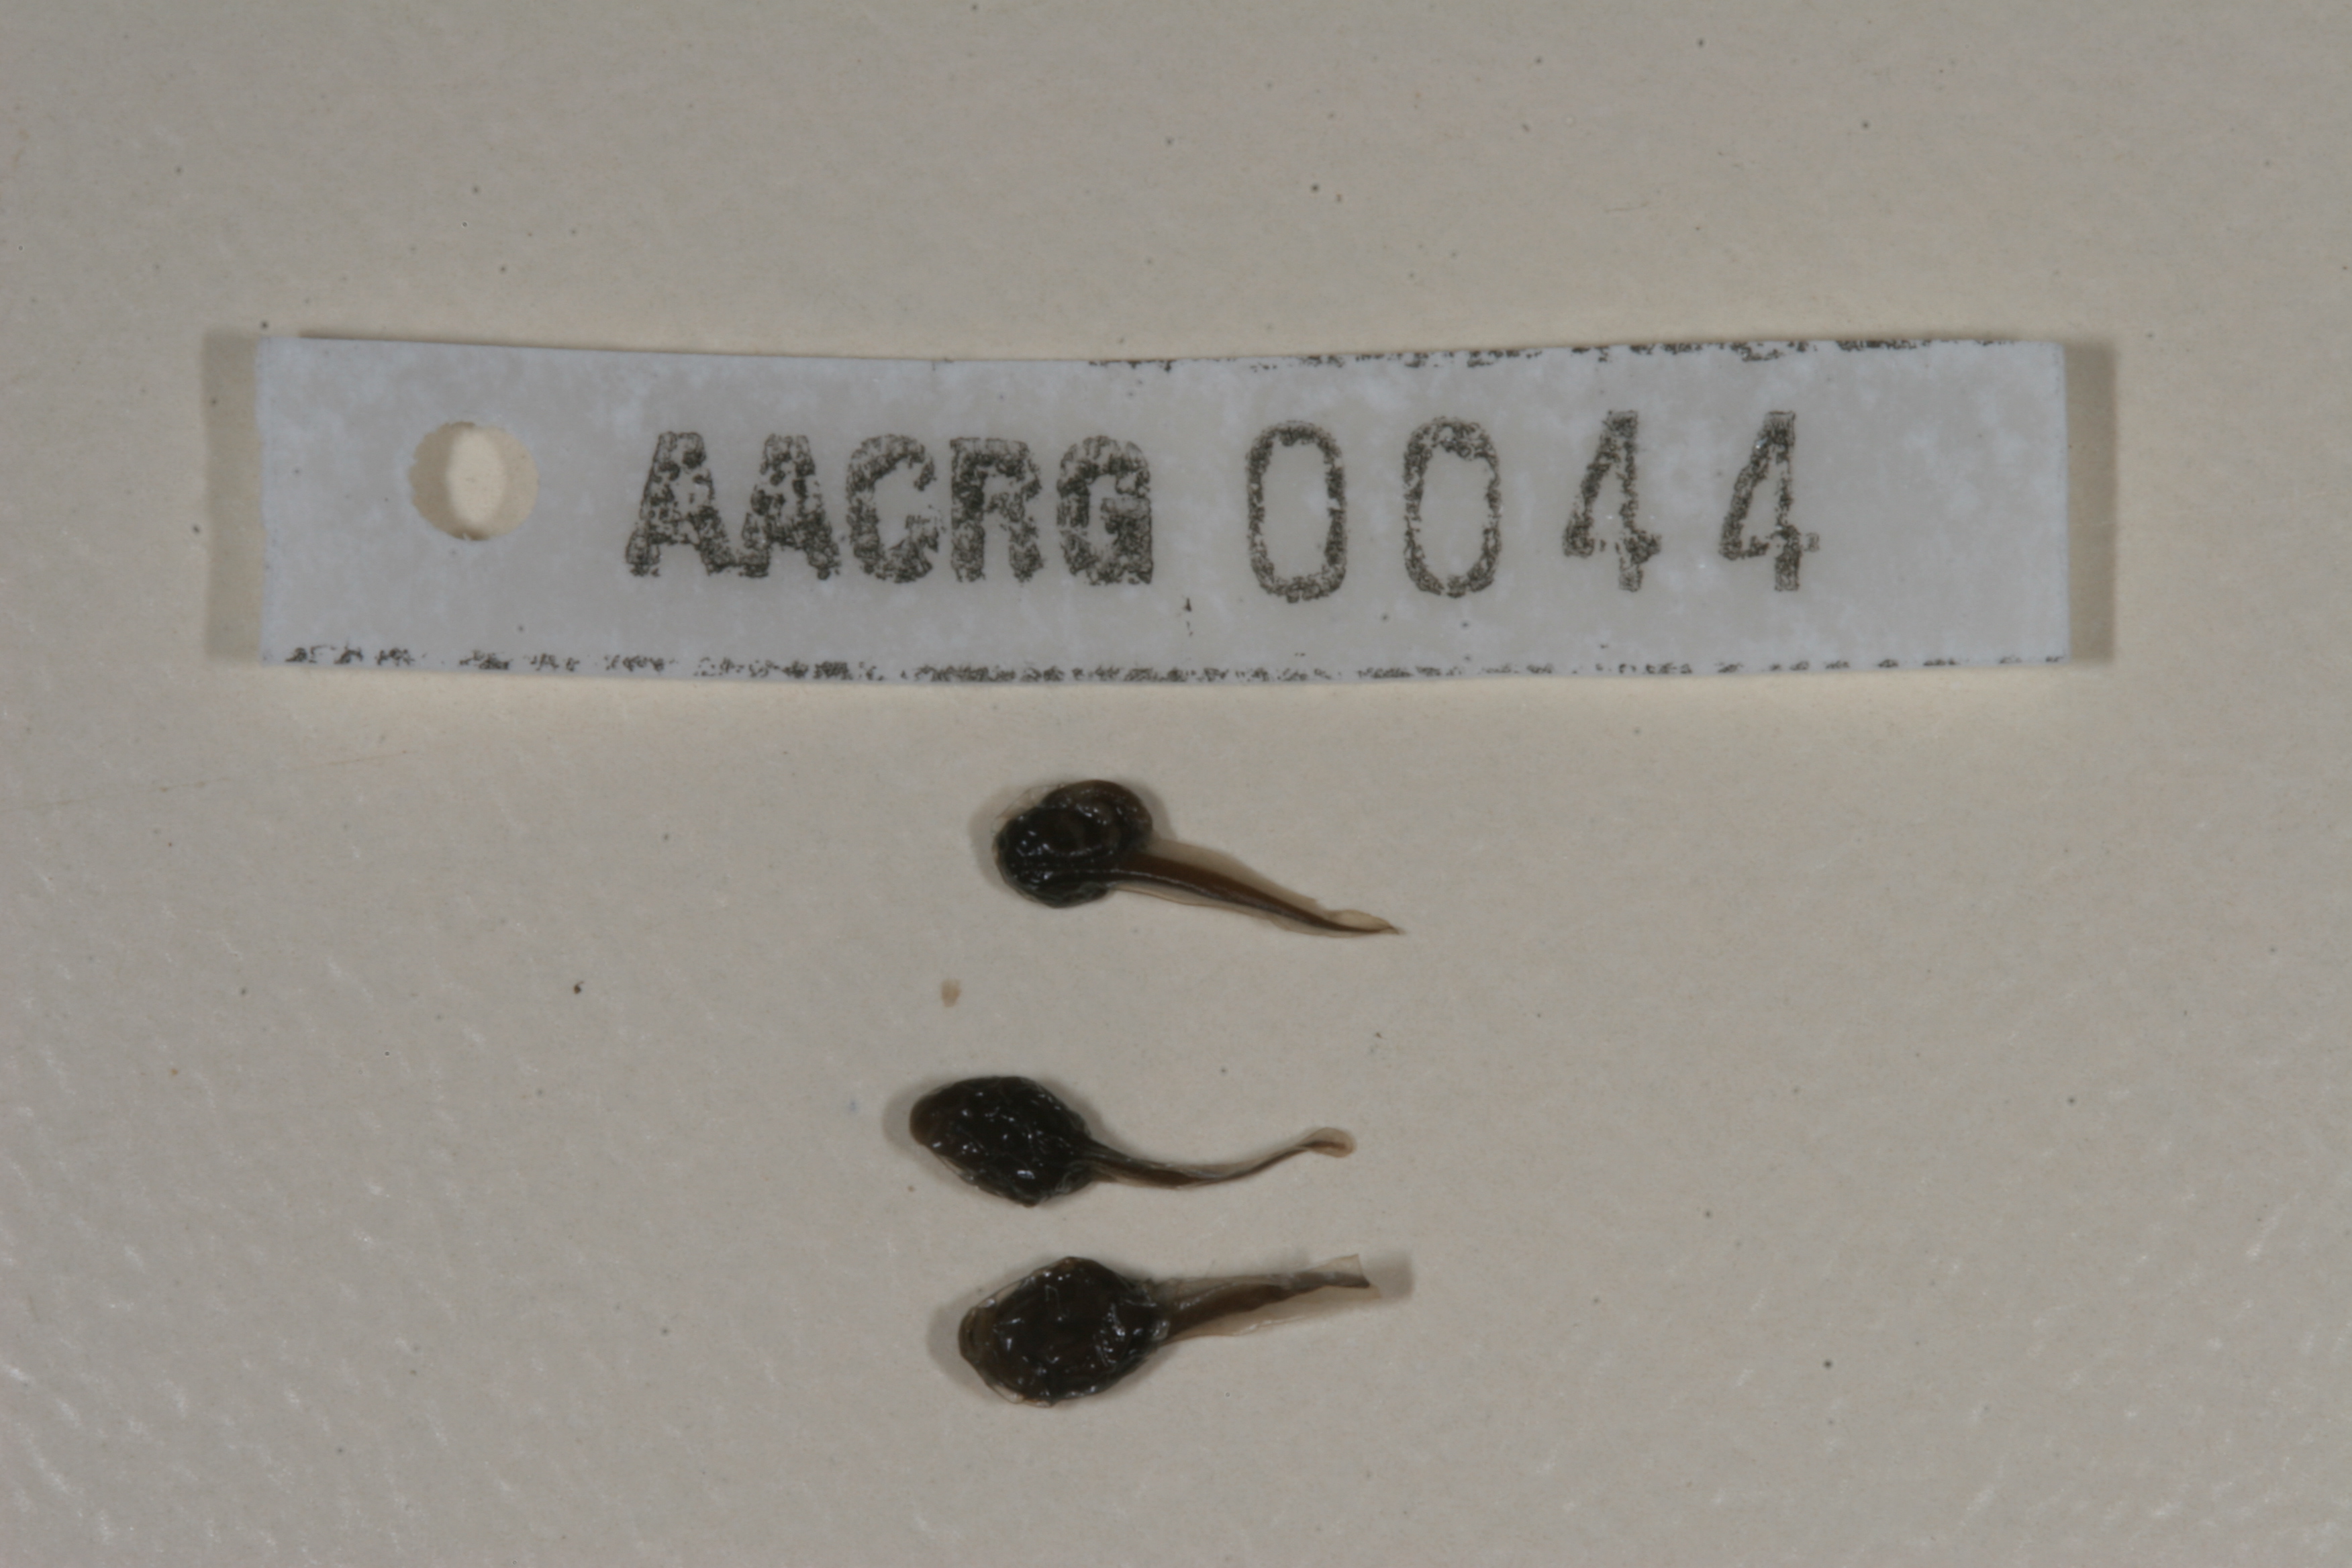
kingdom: Animalia
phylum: Chordata
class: Amphibia
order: Anura
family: Bufonidae
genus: Sclerophrys
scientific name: Sclerophrys garmani
